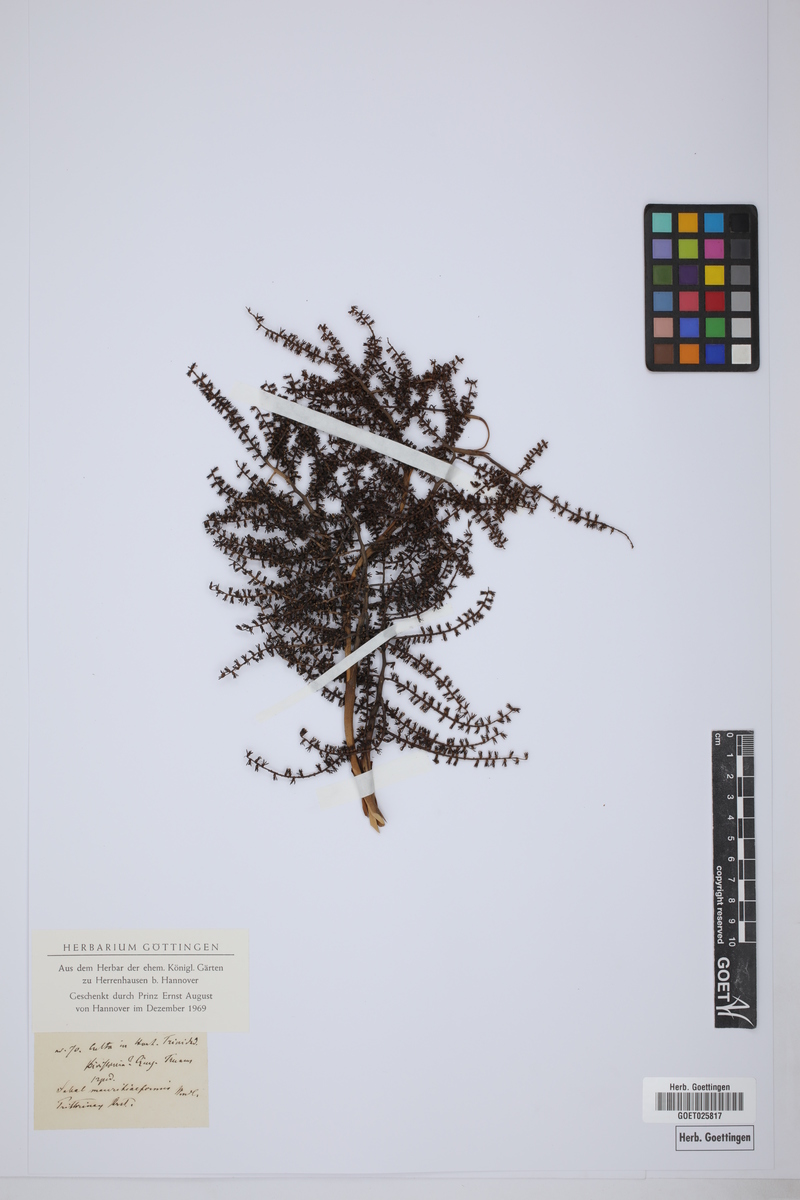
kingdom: Plantae
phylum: Tracheophyta
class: Liliopsida
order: Arecales
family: Arecaceae
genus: Sabal
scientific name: Sabal mauritiiformis
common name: Trinidad palm
